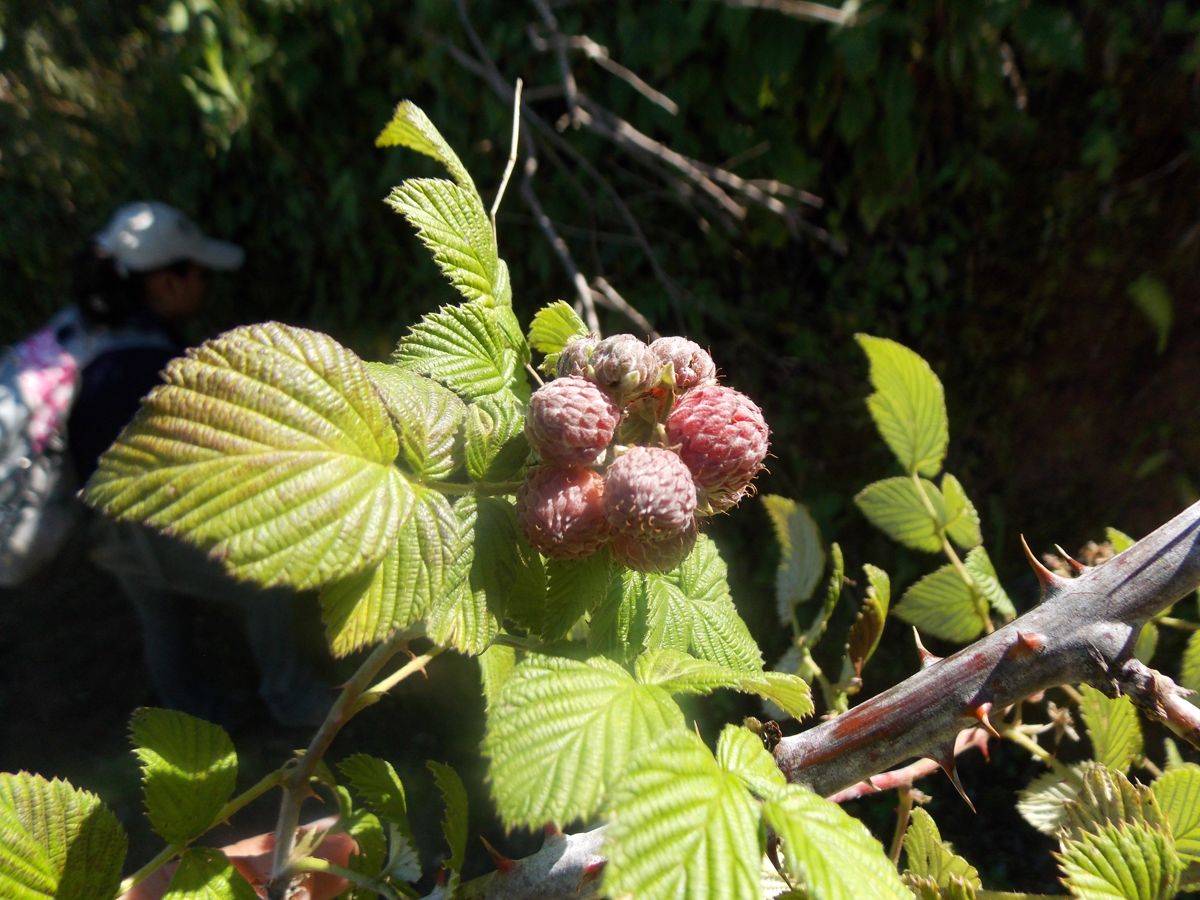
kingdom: Plantae
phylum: Tracheophyta
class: Magnoliopsida
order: Rosales
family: Rosaceae
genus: Rubus
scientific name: Rubus niveus
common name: Snowpeaks raspberry
